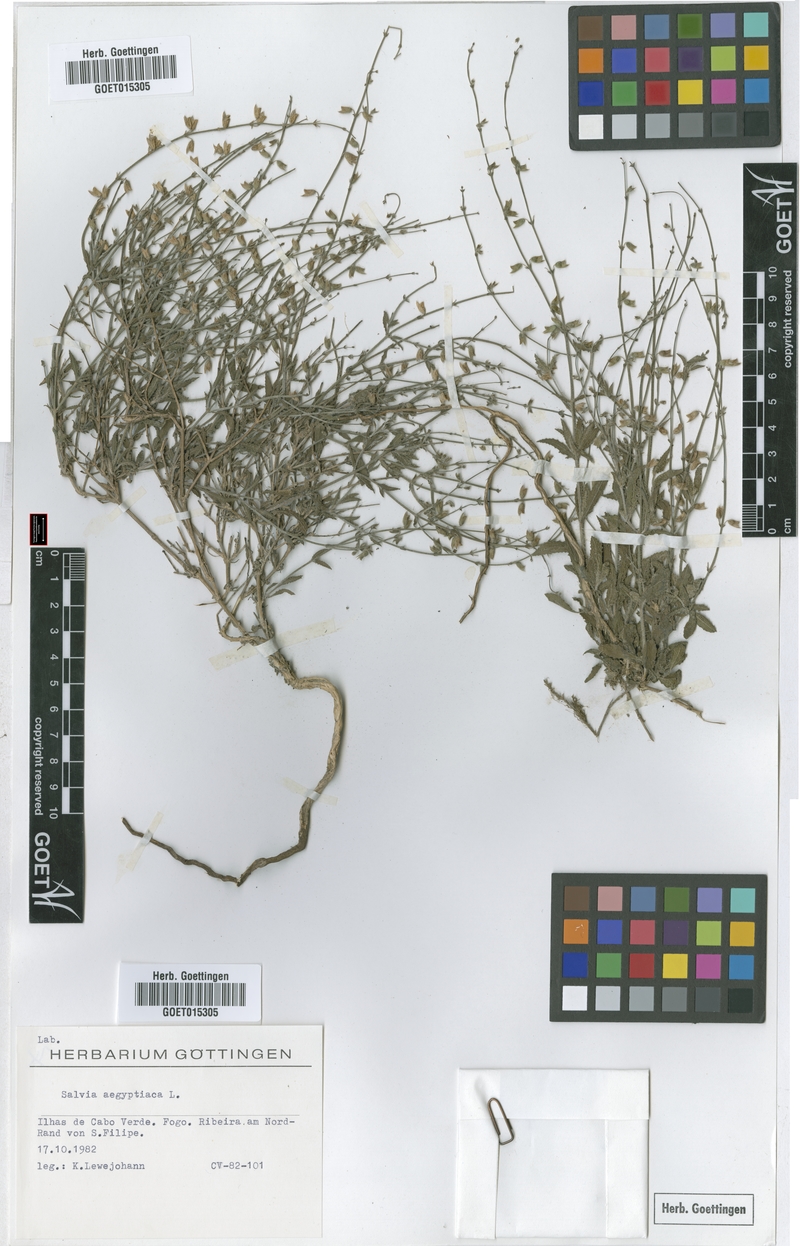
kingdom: Plantae
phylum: Tracheophyta
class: Magnoliopsida
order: Lamiales
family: Lamiaceae
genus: Salvia
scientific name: Salvia aegyptiaca
